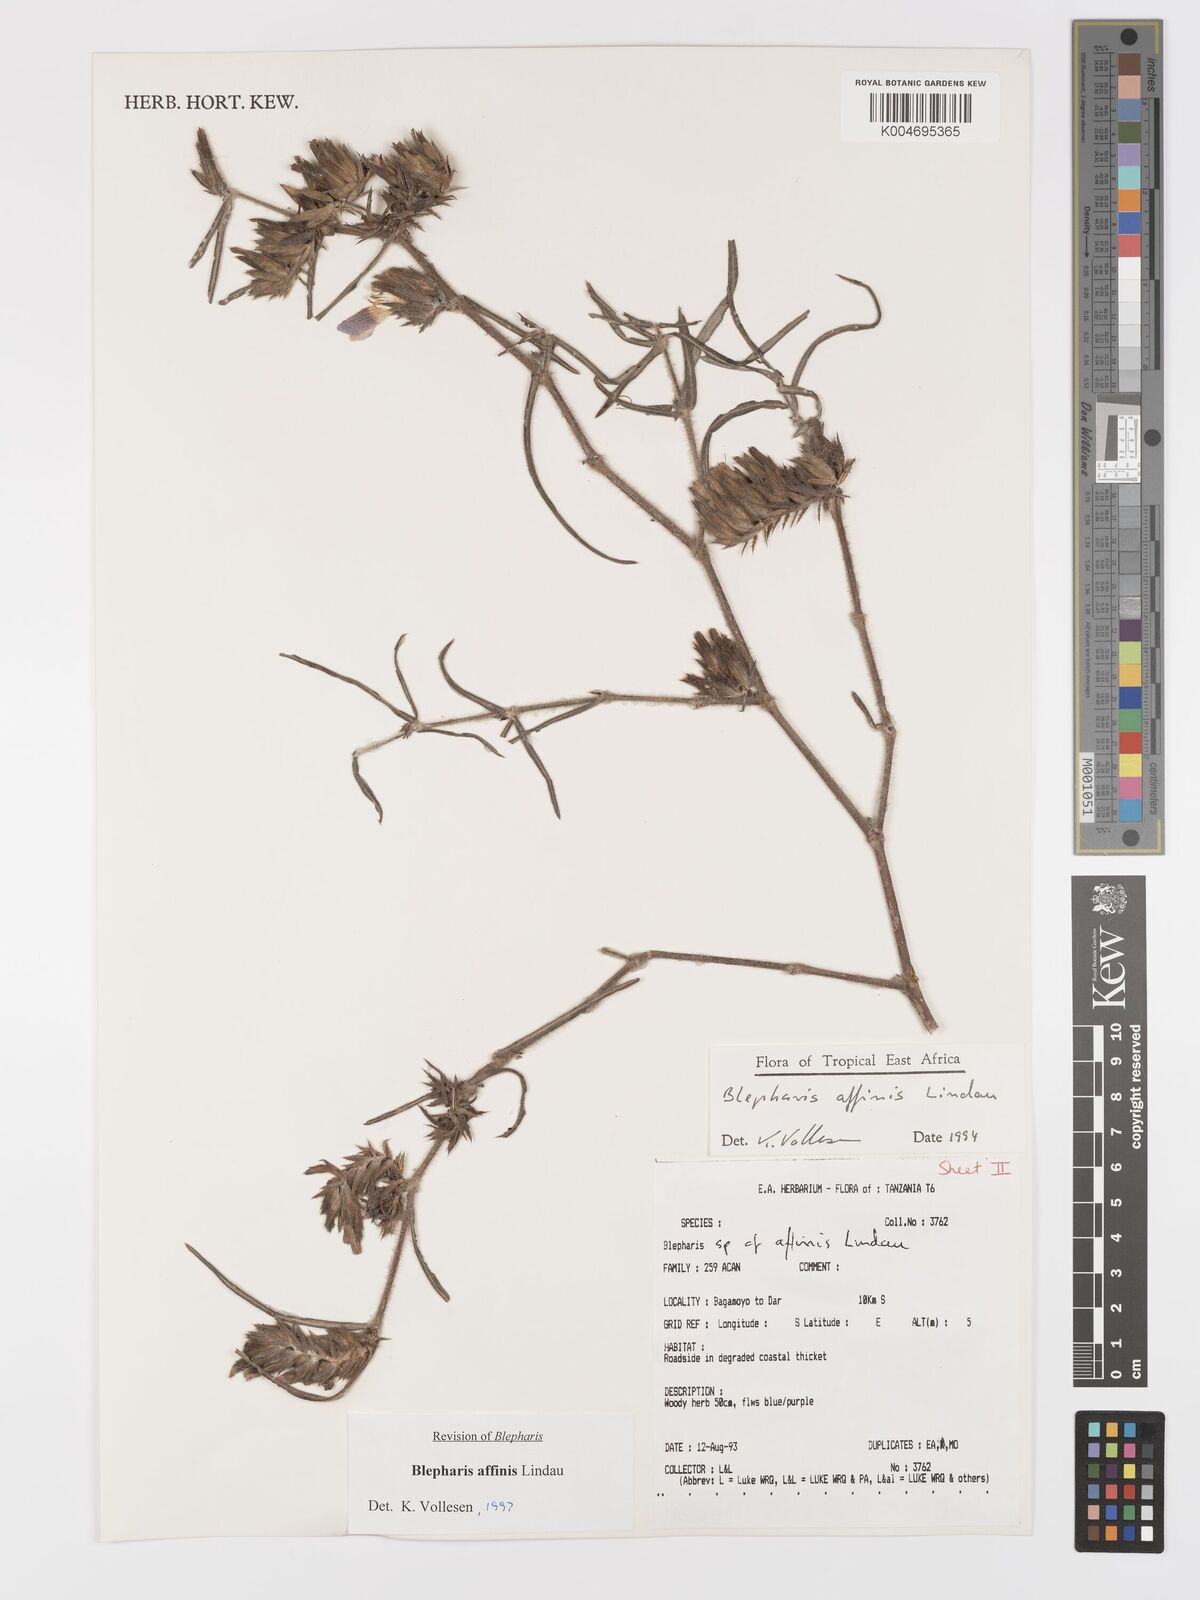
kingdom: Plantae
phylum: Tracheophyta
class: Magnoliopsida
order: Lamiales
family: Acanthaceae
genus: Blepharis
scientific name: Blepharis affinis
